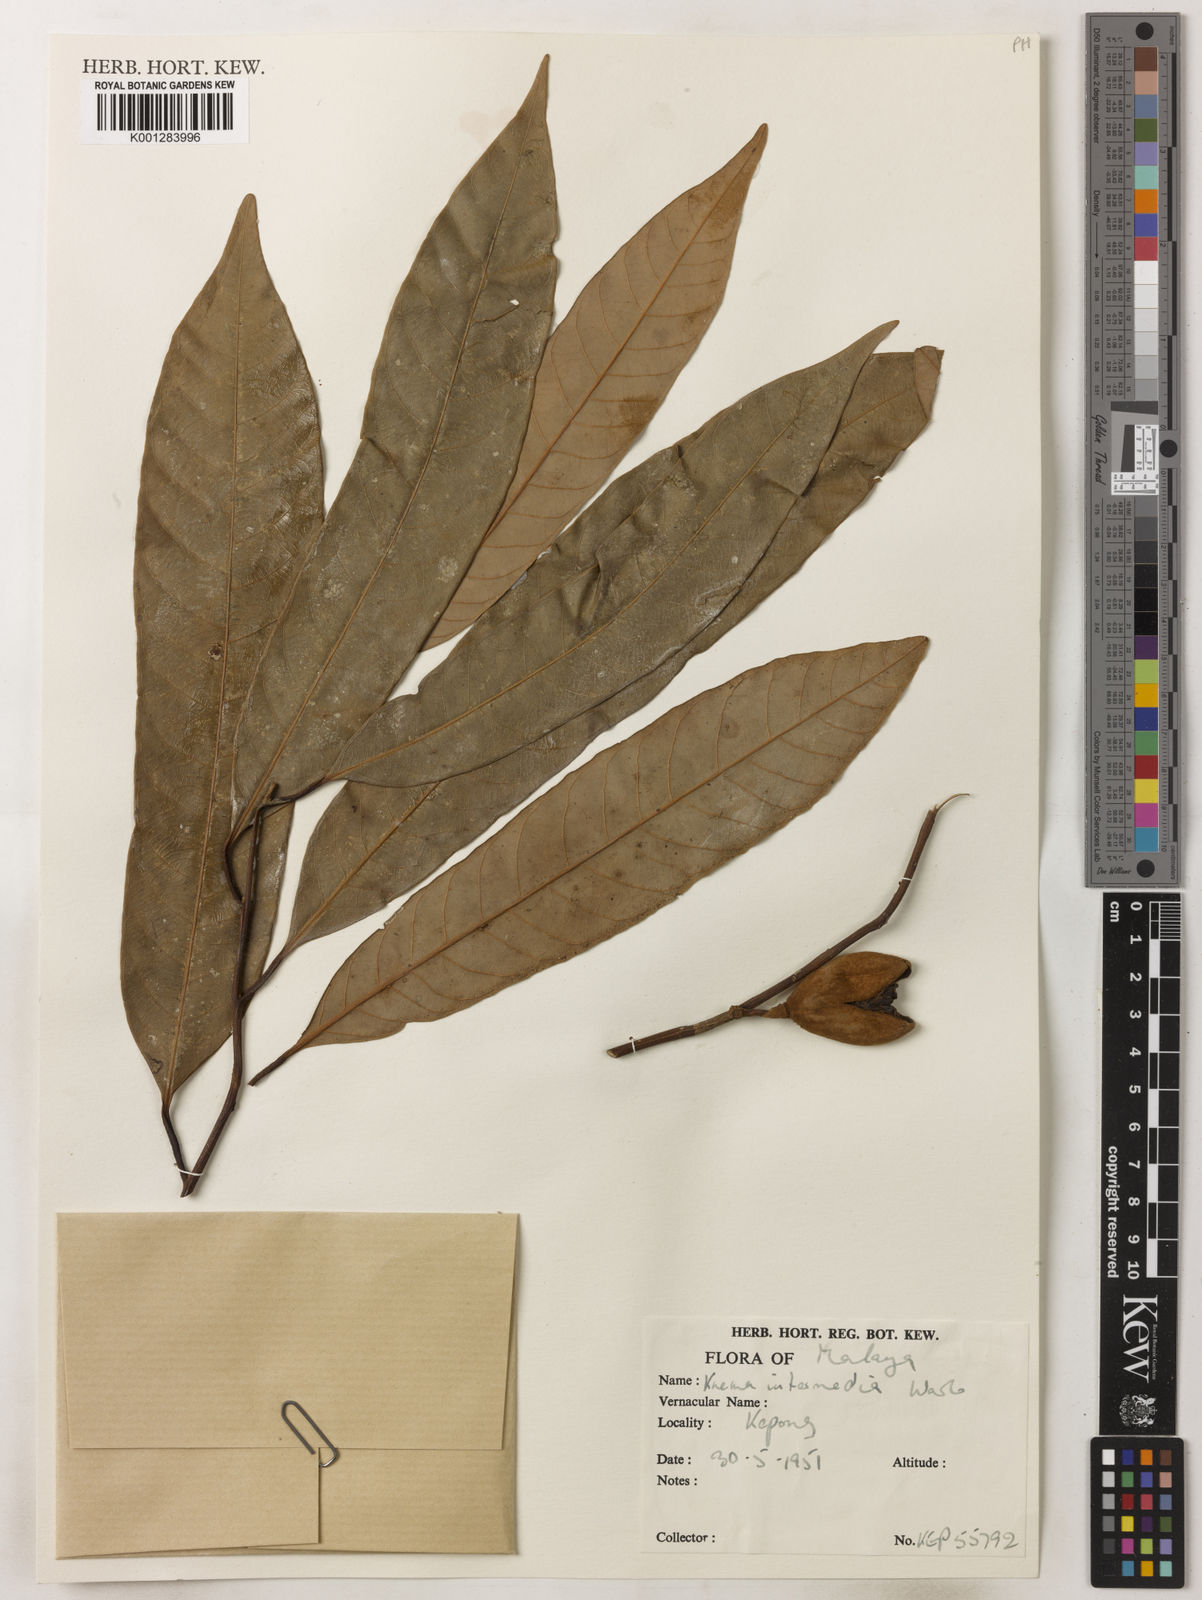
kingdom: Plantae
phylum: Tracheophyta
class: Magnoliopsida
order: Magnoliales
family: Myristicaceae
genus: Knema
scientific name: Knema intermedia
